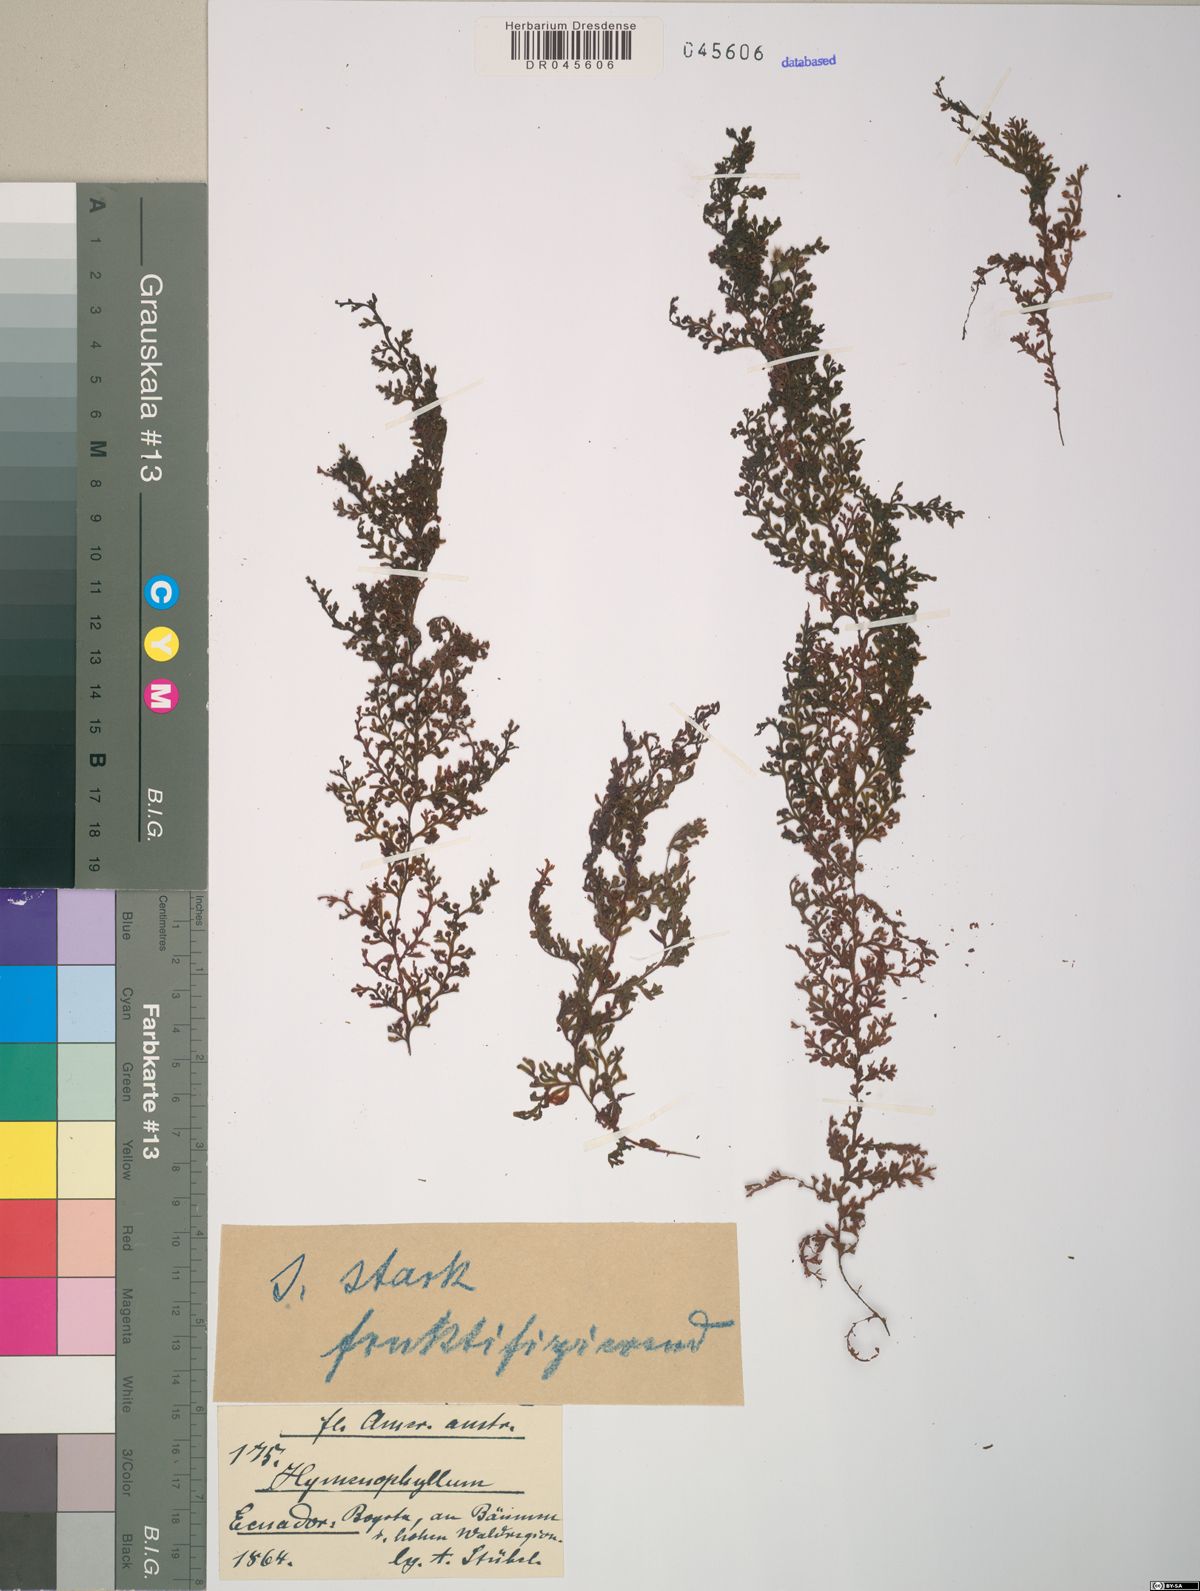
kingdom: Plantae
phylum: Tracheophyta
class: Polypodiopsida
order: Hymenophyllales
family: Hymenophyllaceae
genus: Hymenophyllum
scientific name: Hymenophyllum ferax
